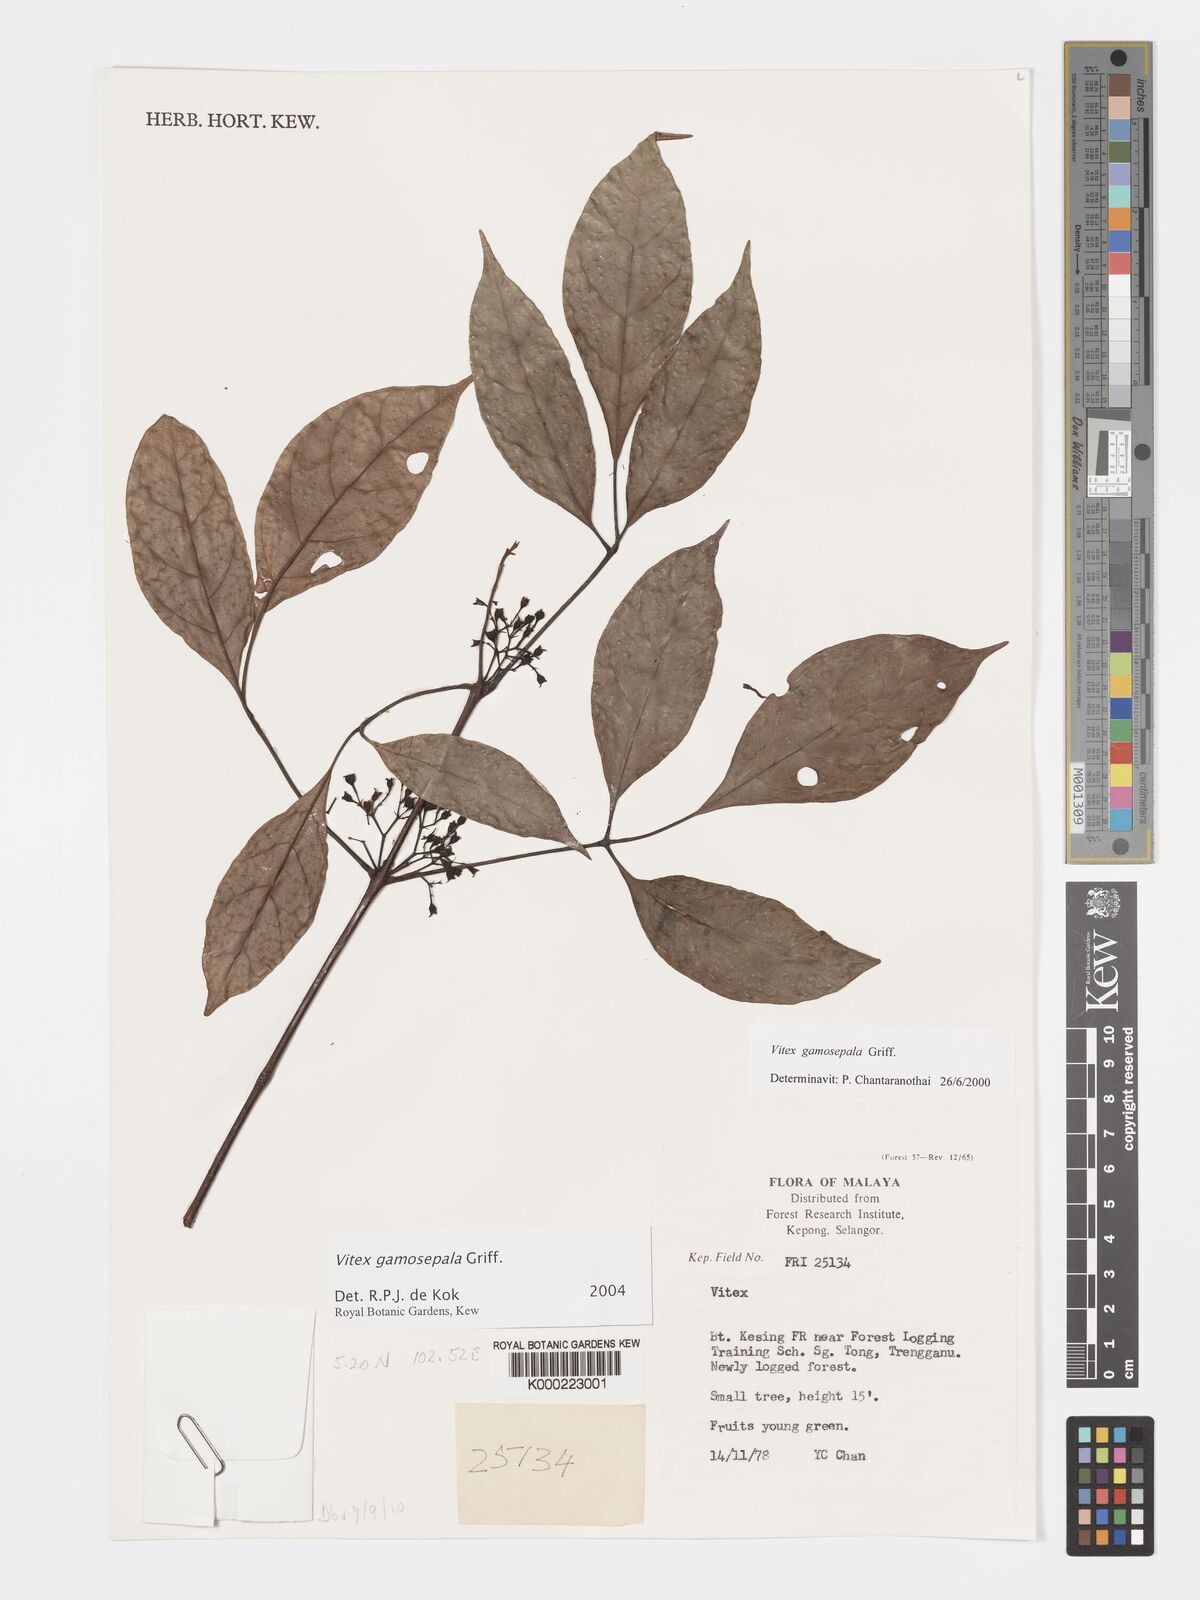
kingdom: Plantae
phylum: Tracheophyta
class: Magnoliopsida
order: Lamiales
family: Lamiaceae
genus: Vitex
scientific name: Vitex gamosepala
